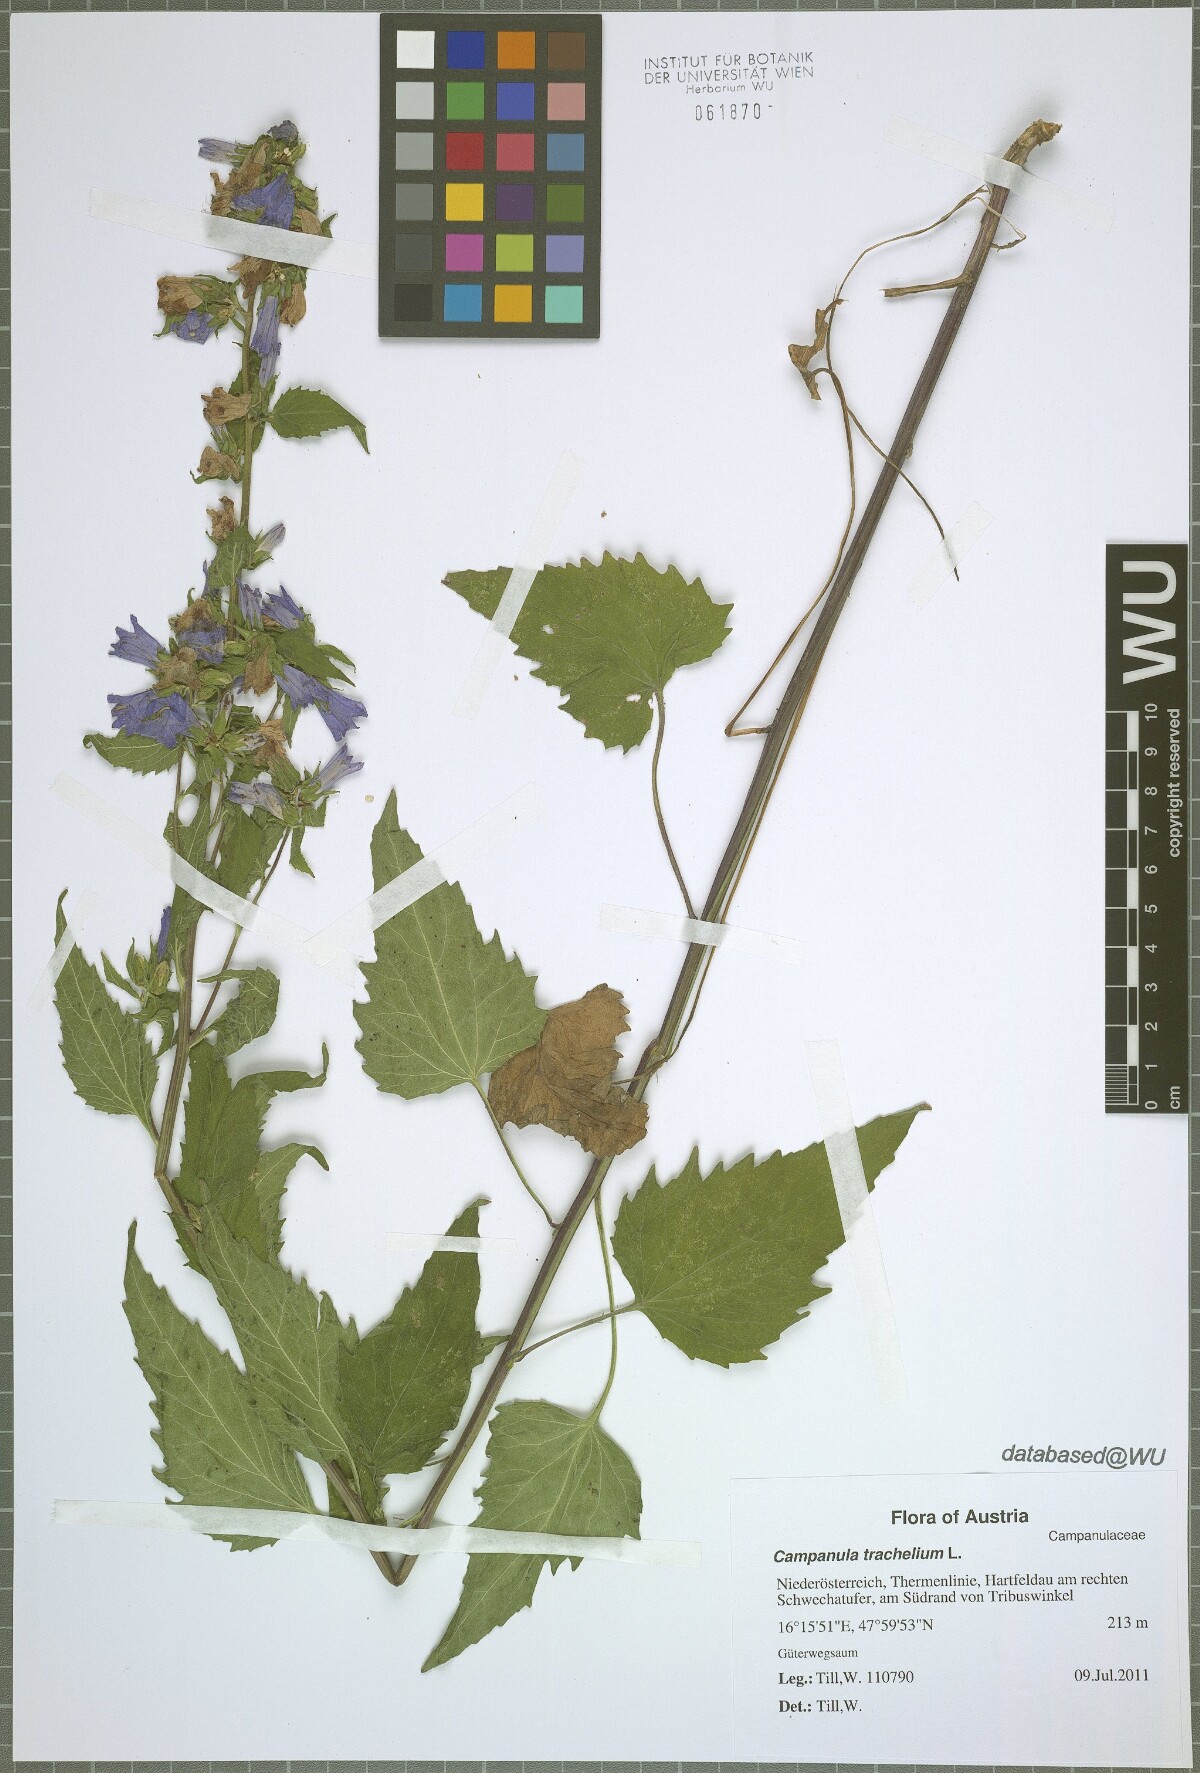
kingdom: Plantae
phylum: Tracheophyta
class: Magnoliopsida
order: Asterales
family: Campanulaceae
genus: Campanula
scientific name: Campanula trachelium
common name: Nettle-leaved bellflower
